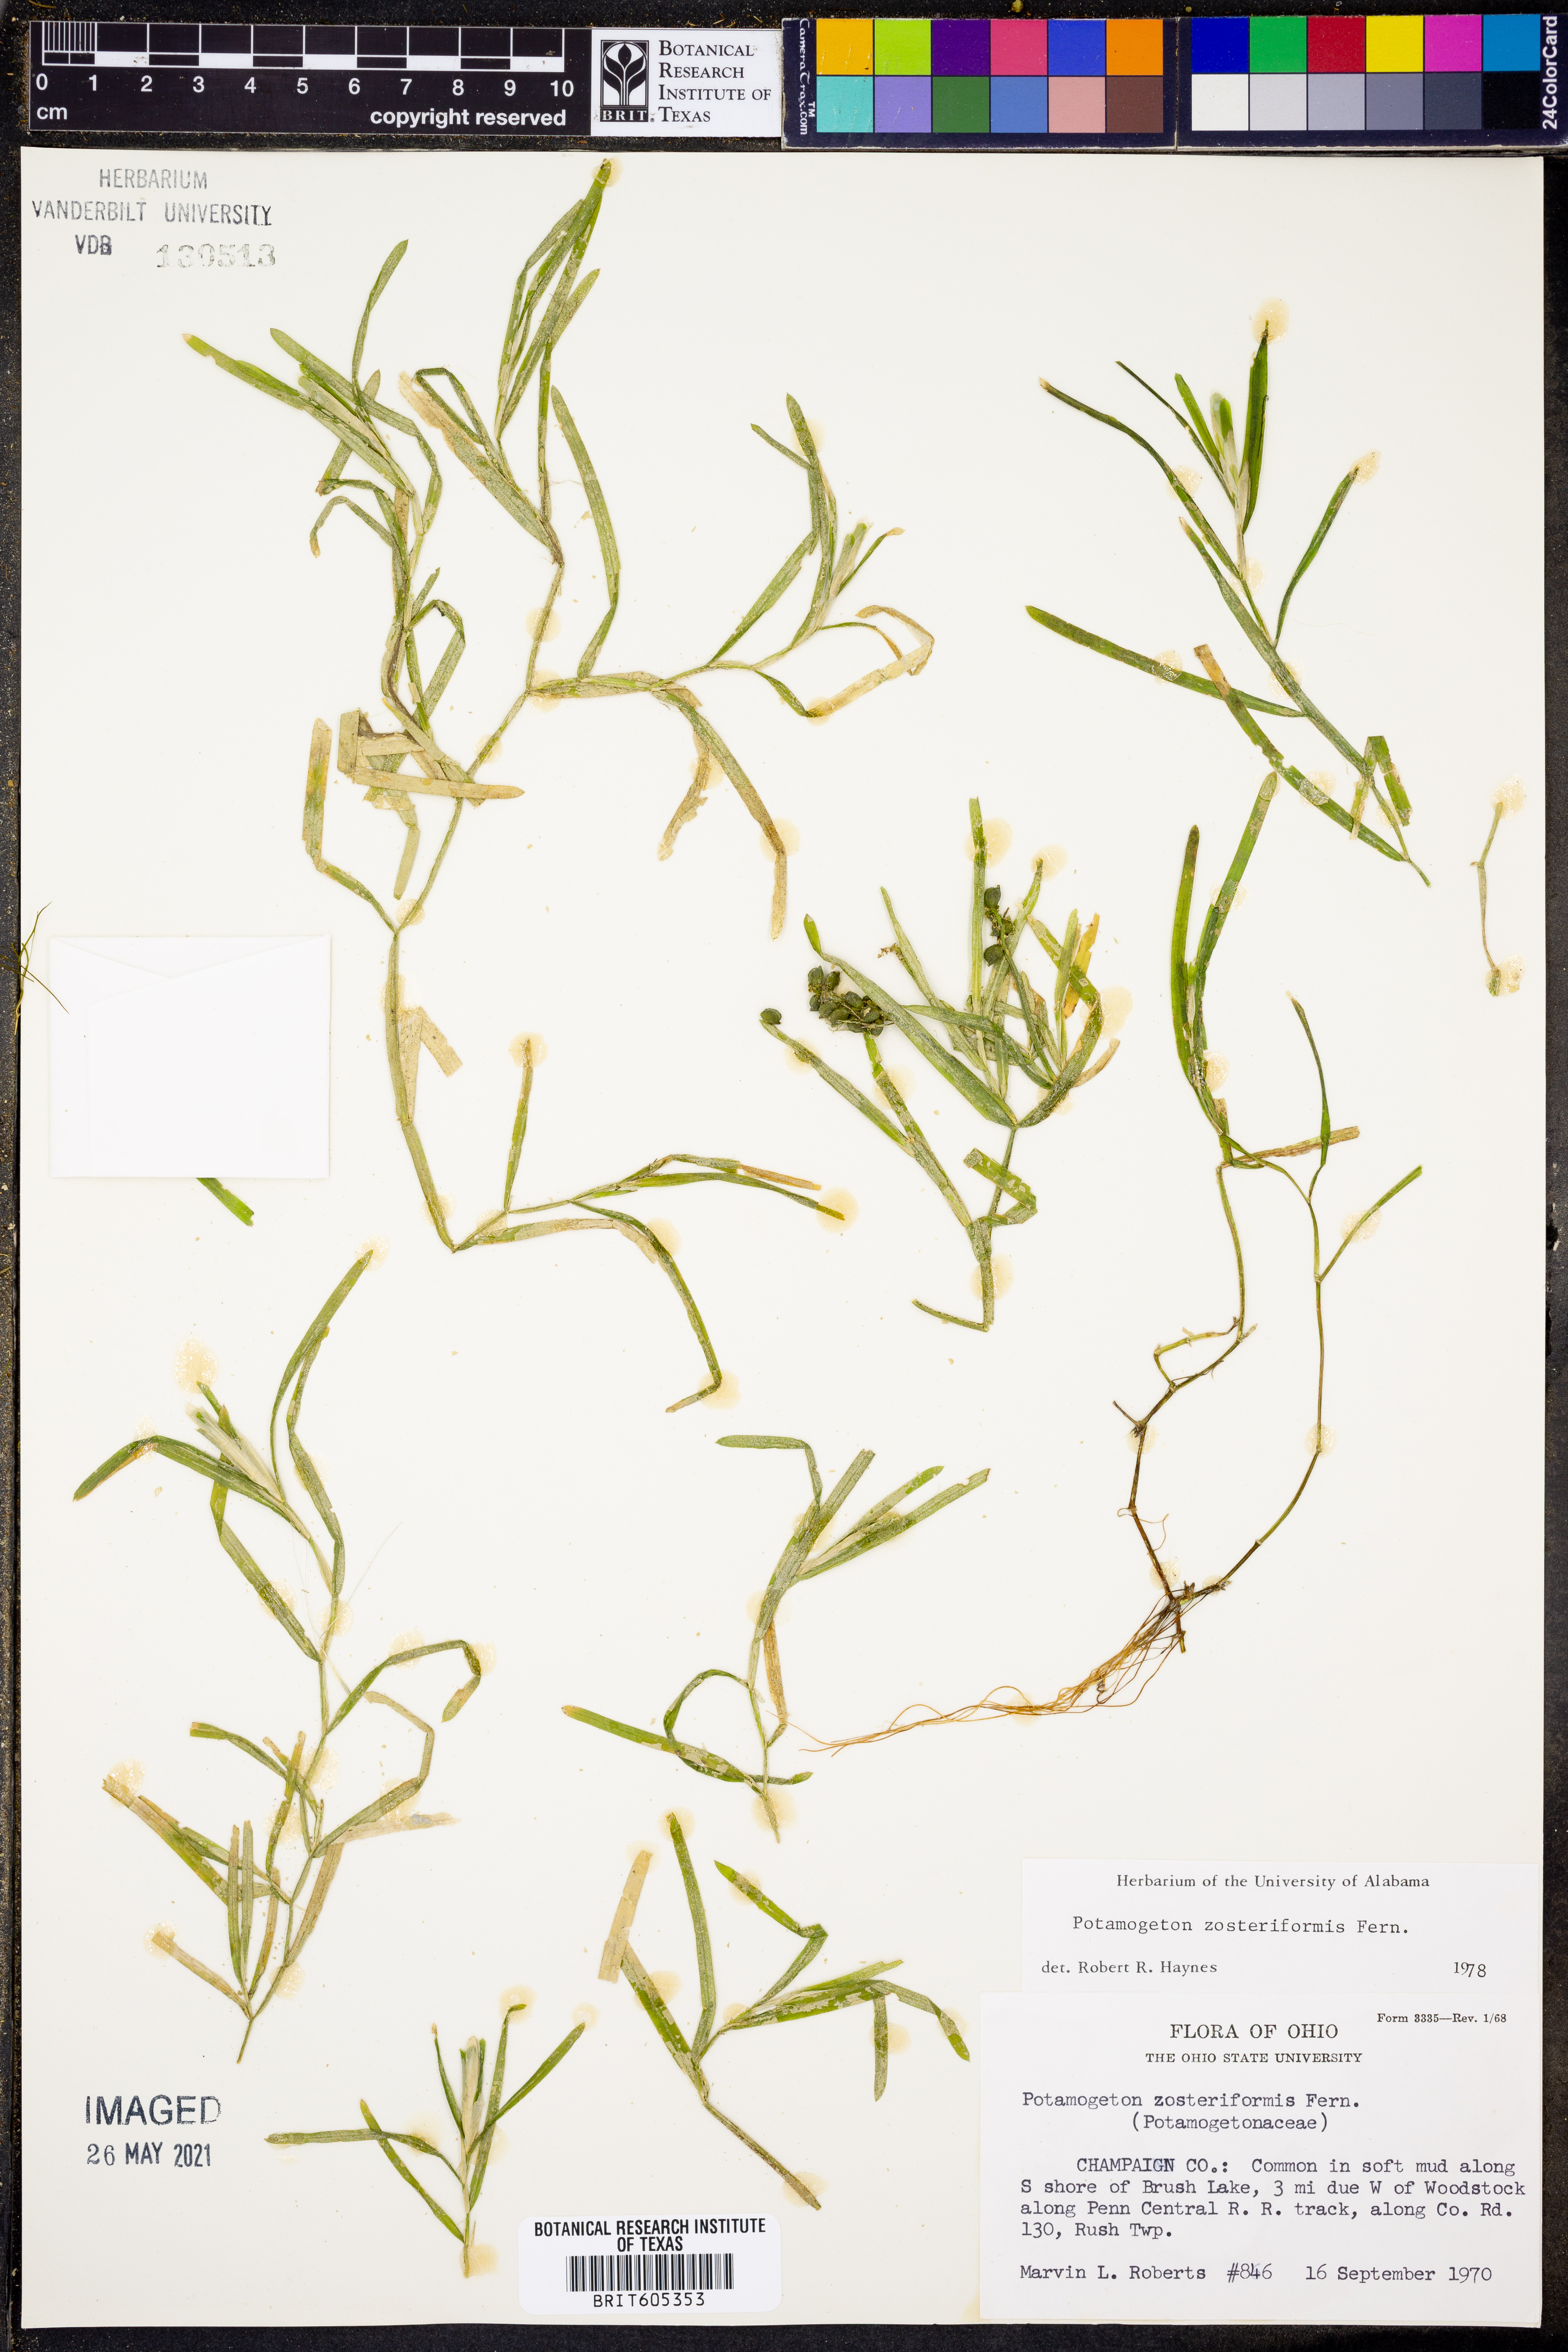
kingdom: Plantae
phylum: Tracheophyta
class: Liliopsida
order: Alismatales
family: Potamogetonaceae
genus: Potamogeton
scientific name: Potamogeton compressus
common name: Grass-wrack pondweed
